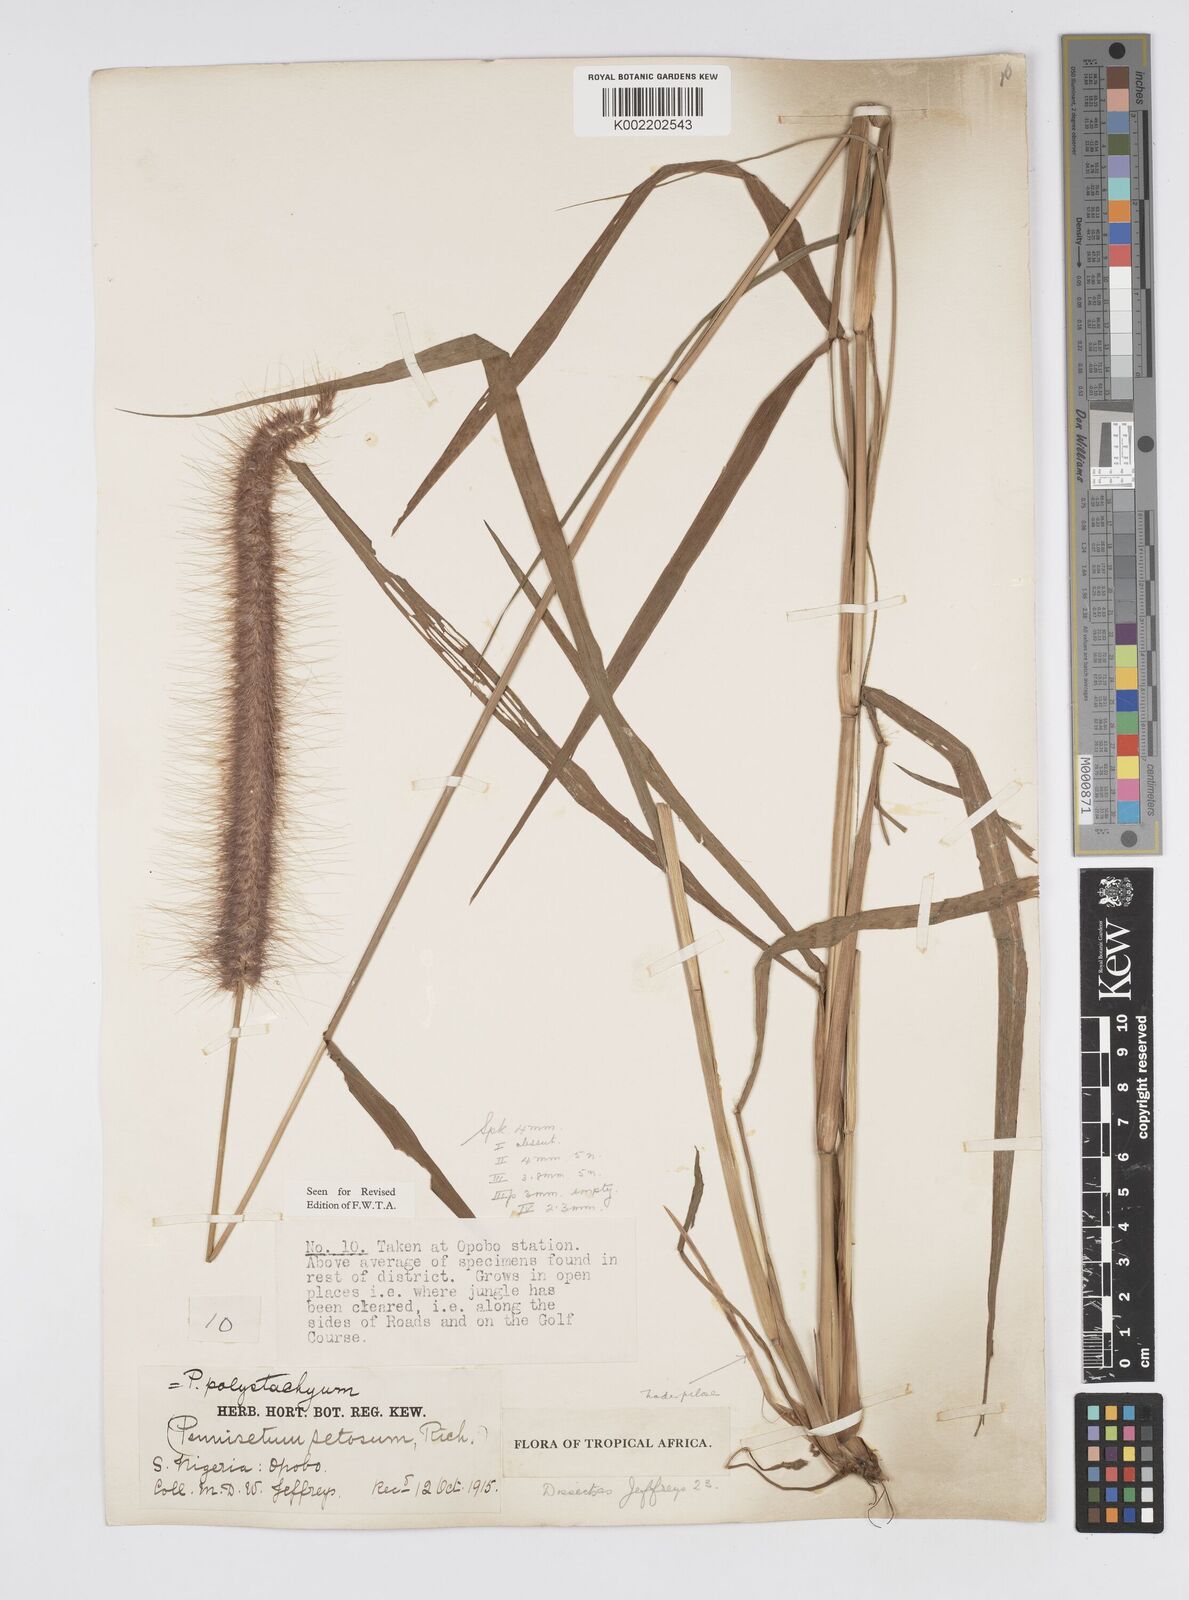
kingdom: Plantae
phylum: Tracheophyta
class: Liliopsida
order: Poales
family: Poaceae
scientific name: Poaceae
